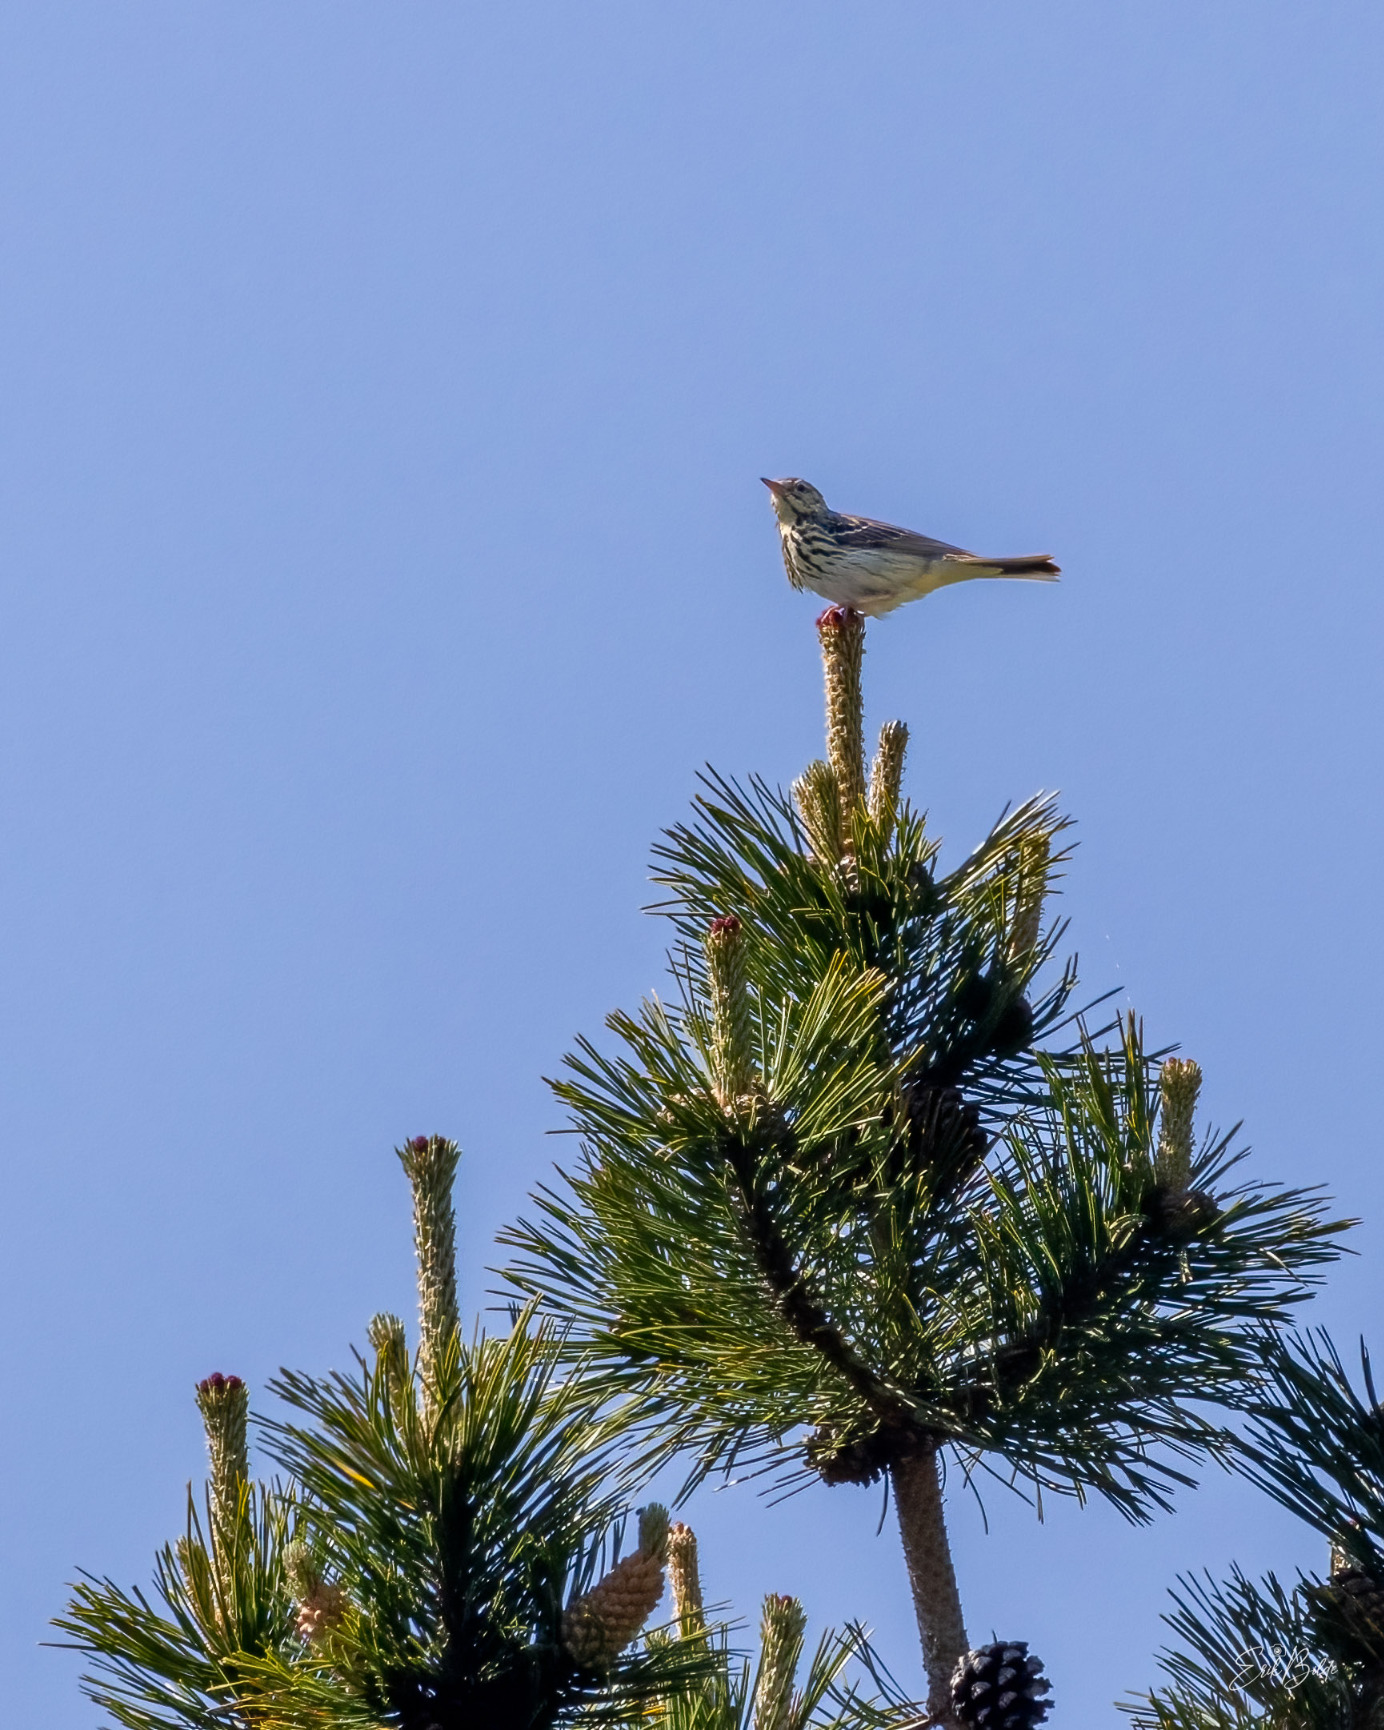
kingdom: Animalia
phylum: Chordata
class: Aves
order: Passeriformes
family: Motacillidae
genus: Anthus
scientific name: Anthus trivialis
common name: Skovpiber
